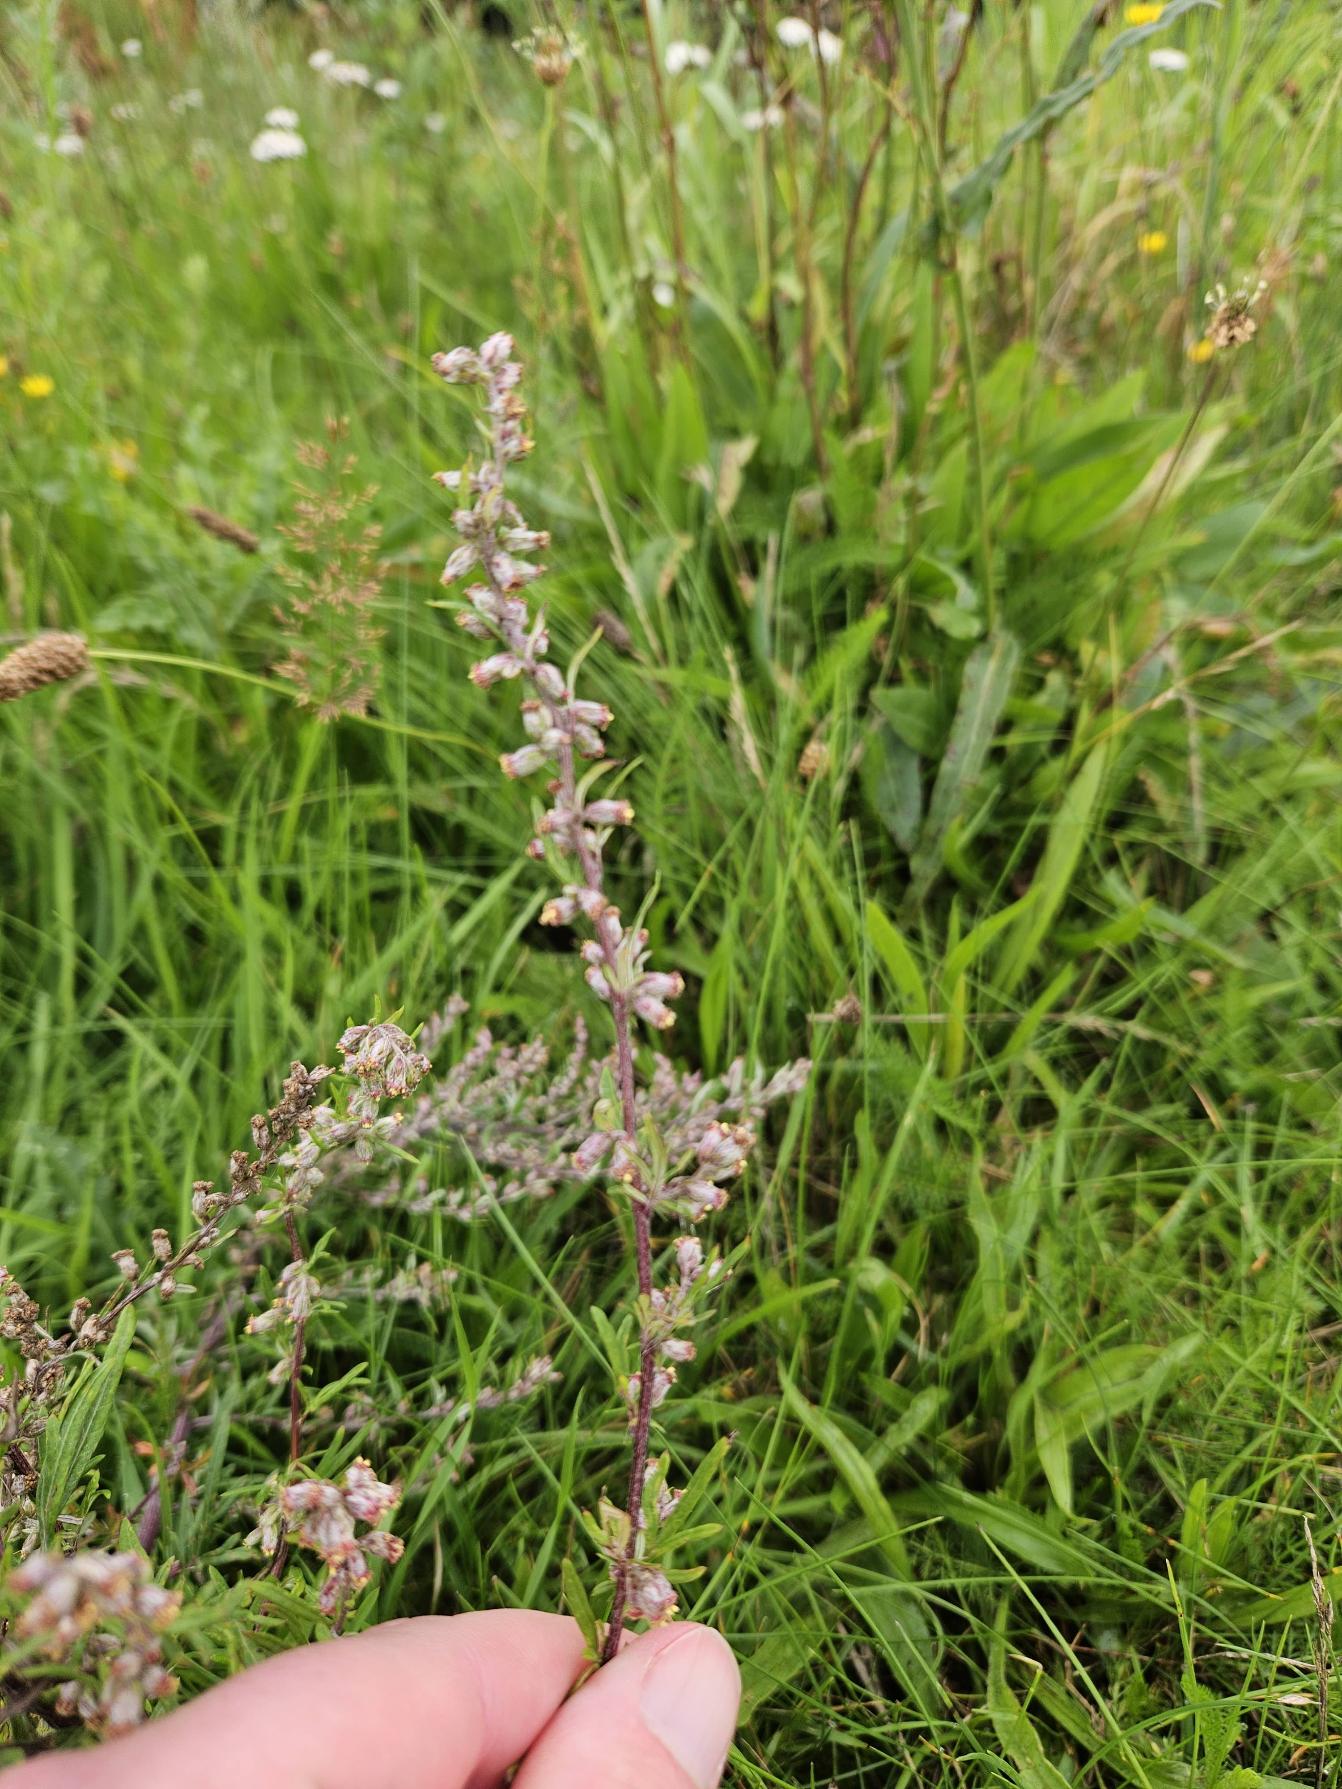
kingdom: Plantae
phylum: Tracheophyta
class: Magnoliopsida
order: Asterales
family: Asteraceae
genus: Artemisia
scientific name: Artemisia vulgaris
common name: Grå-bynke
